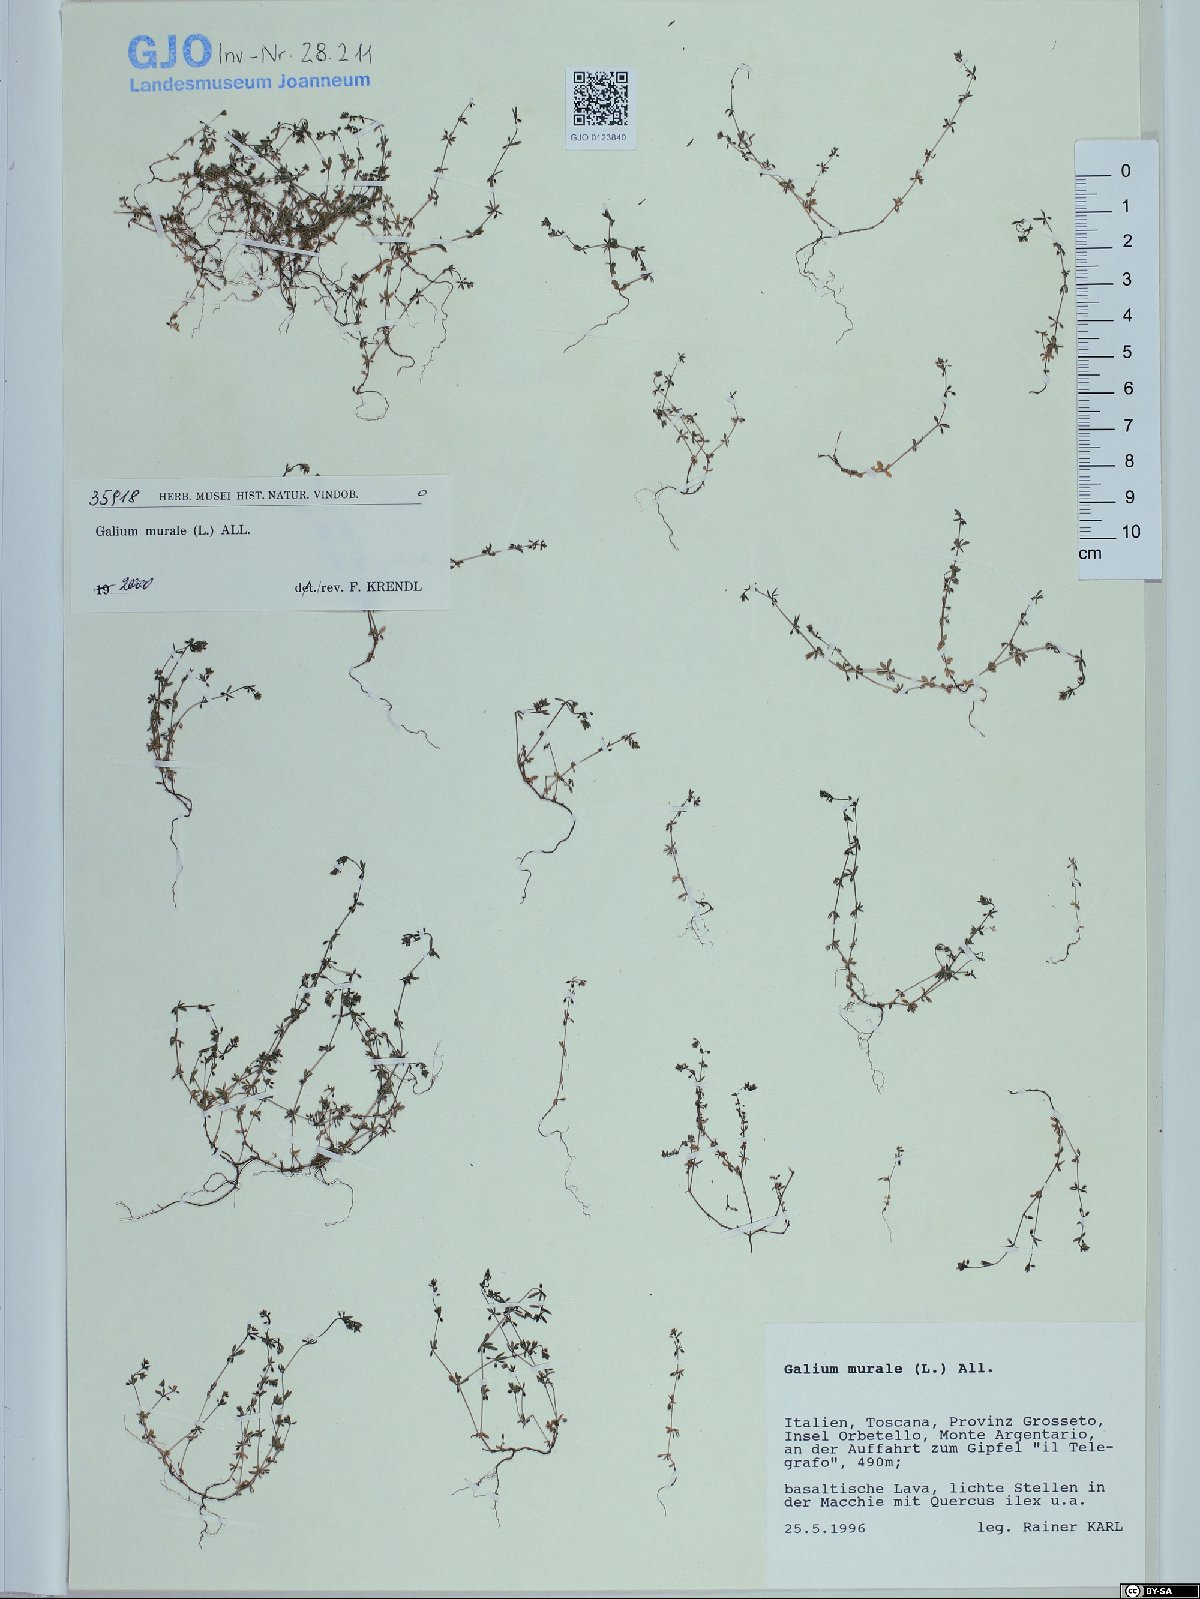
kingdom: Plantae
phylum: Tracheophyta
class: Magnoliopsida
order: Gentianales
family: Rubiaceae
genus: Galium
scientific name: Galium murale
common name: Yellow wall bedstraw
